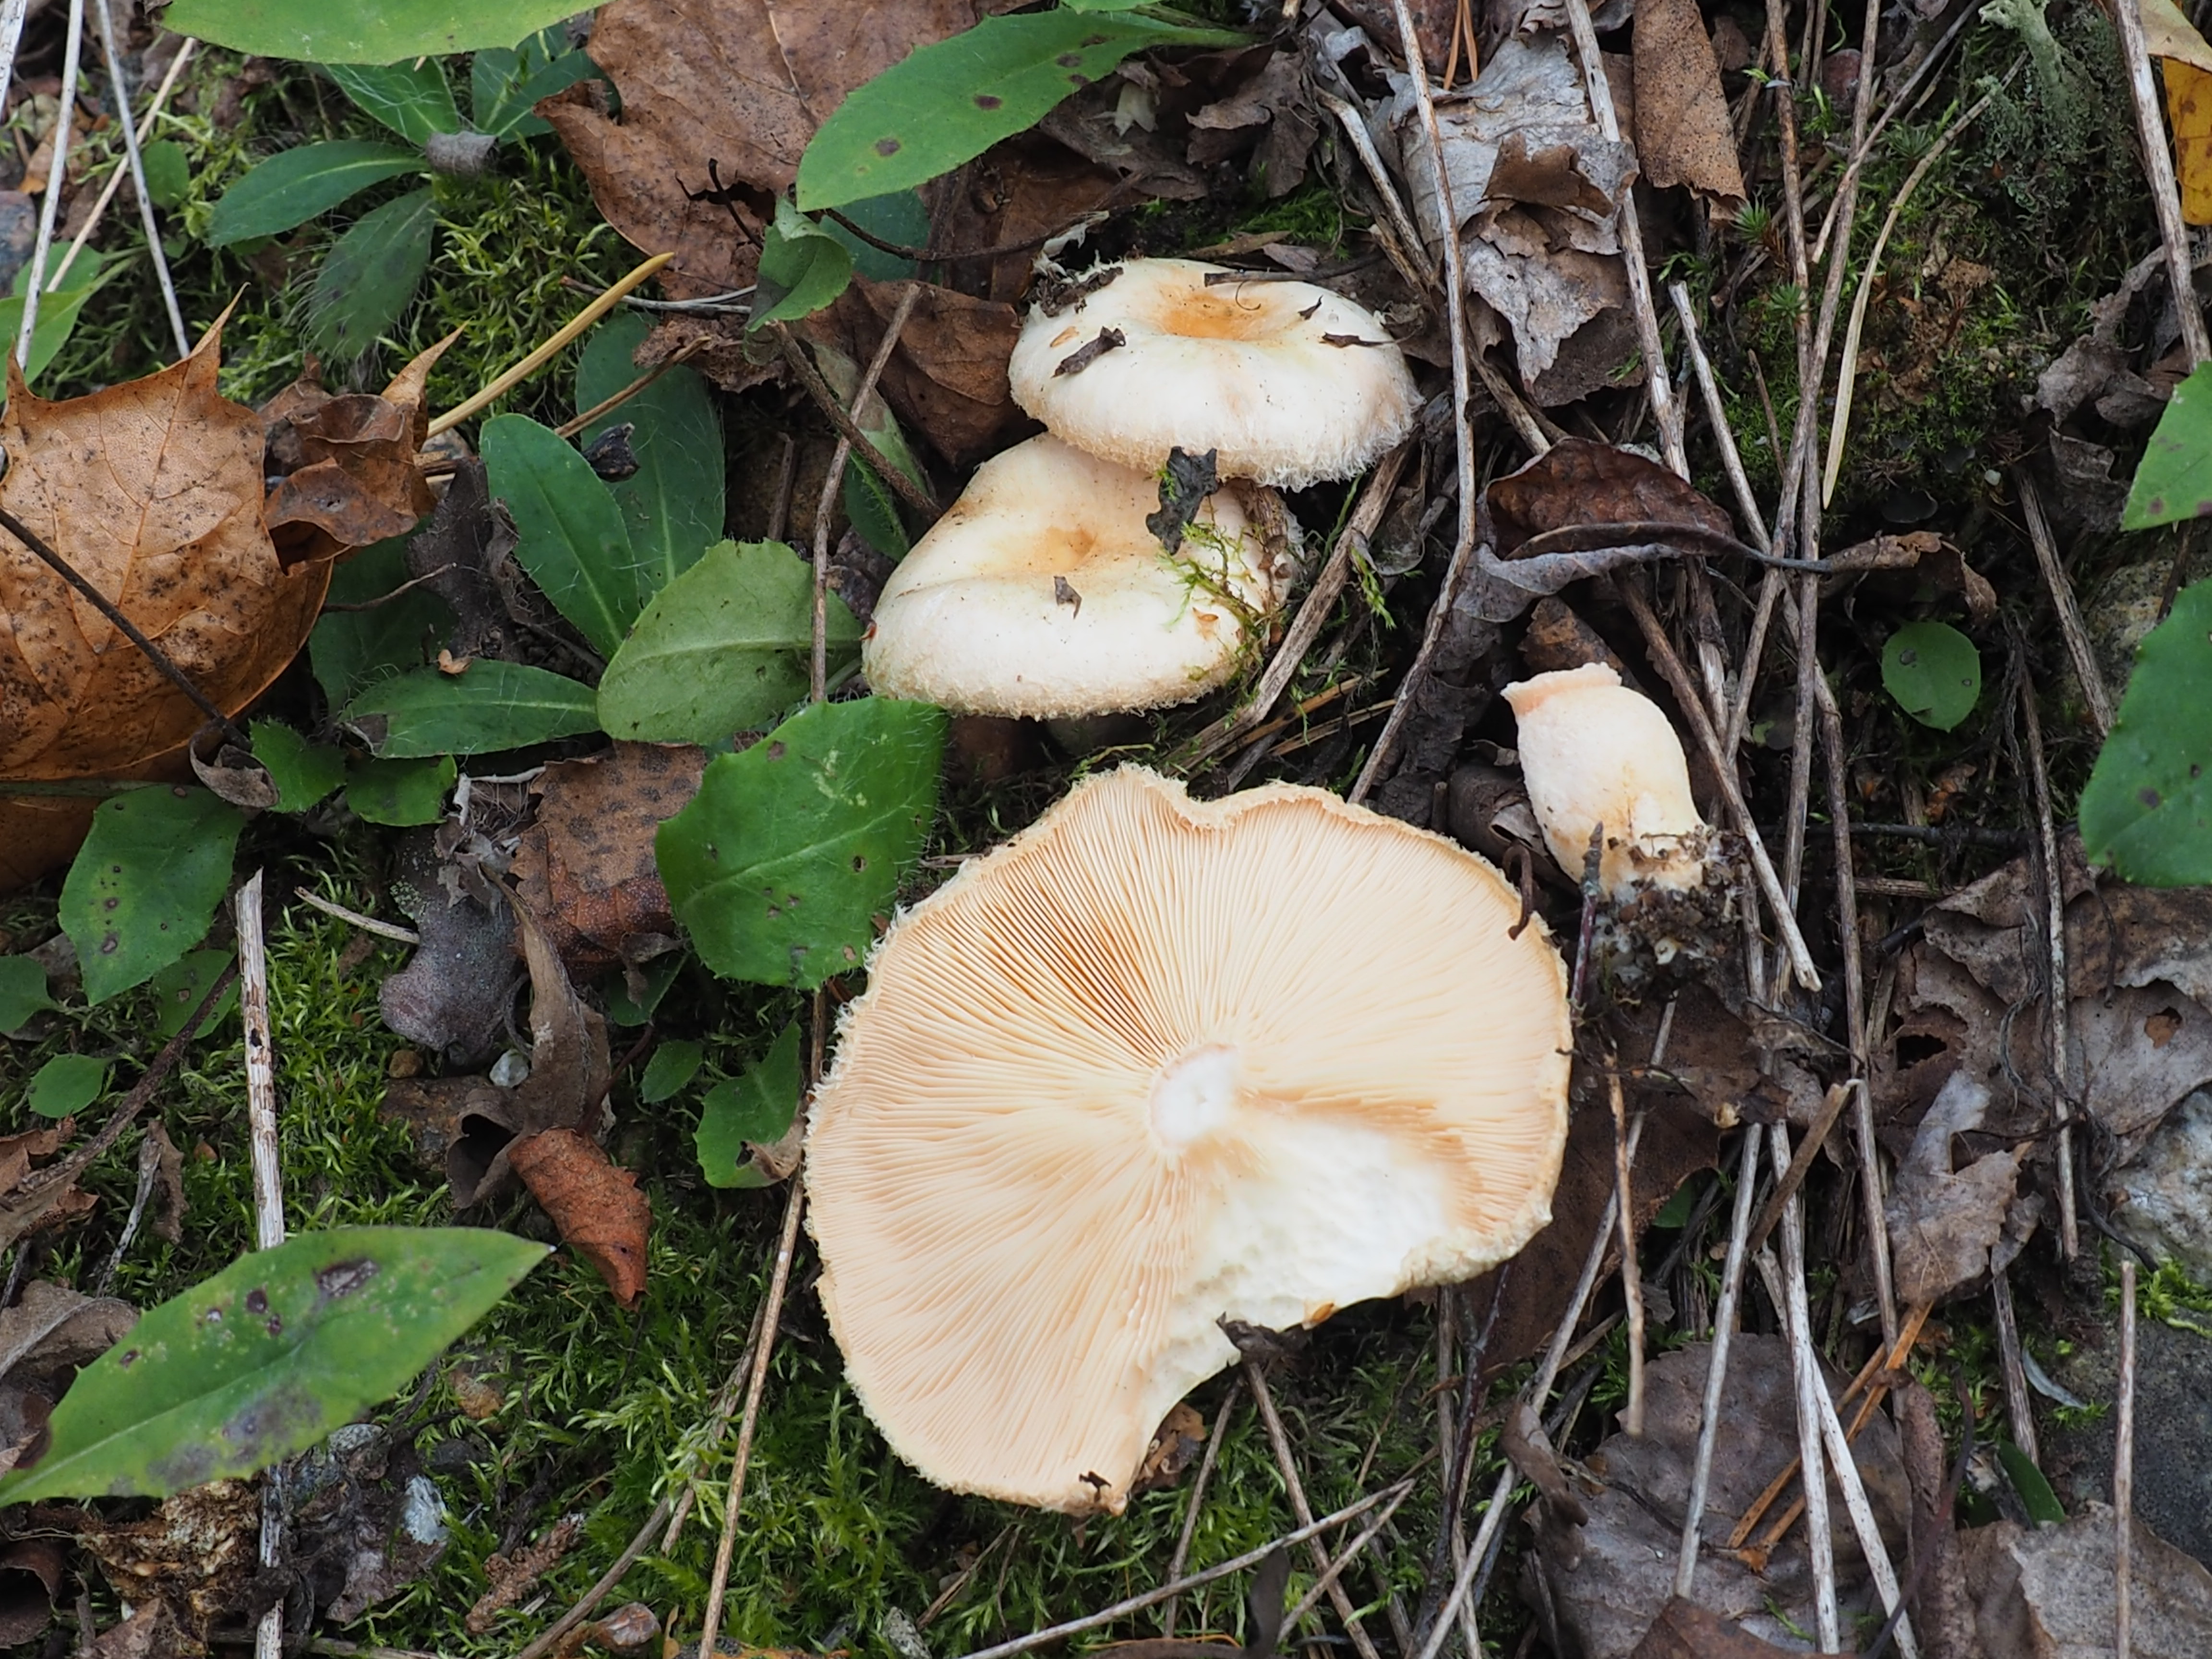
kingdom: Fungi
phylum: Basidiomycota
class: Agaricomycetes
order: Russulales
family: Russulaceae
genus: Lactarius
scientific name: Lactarius pubescens
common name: Bearded milkcap
